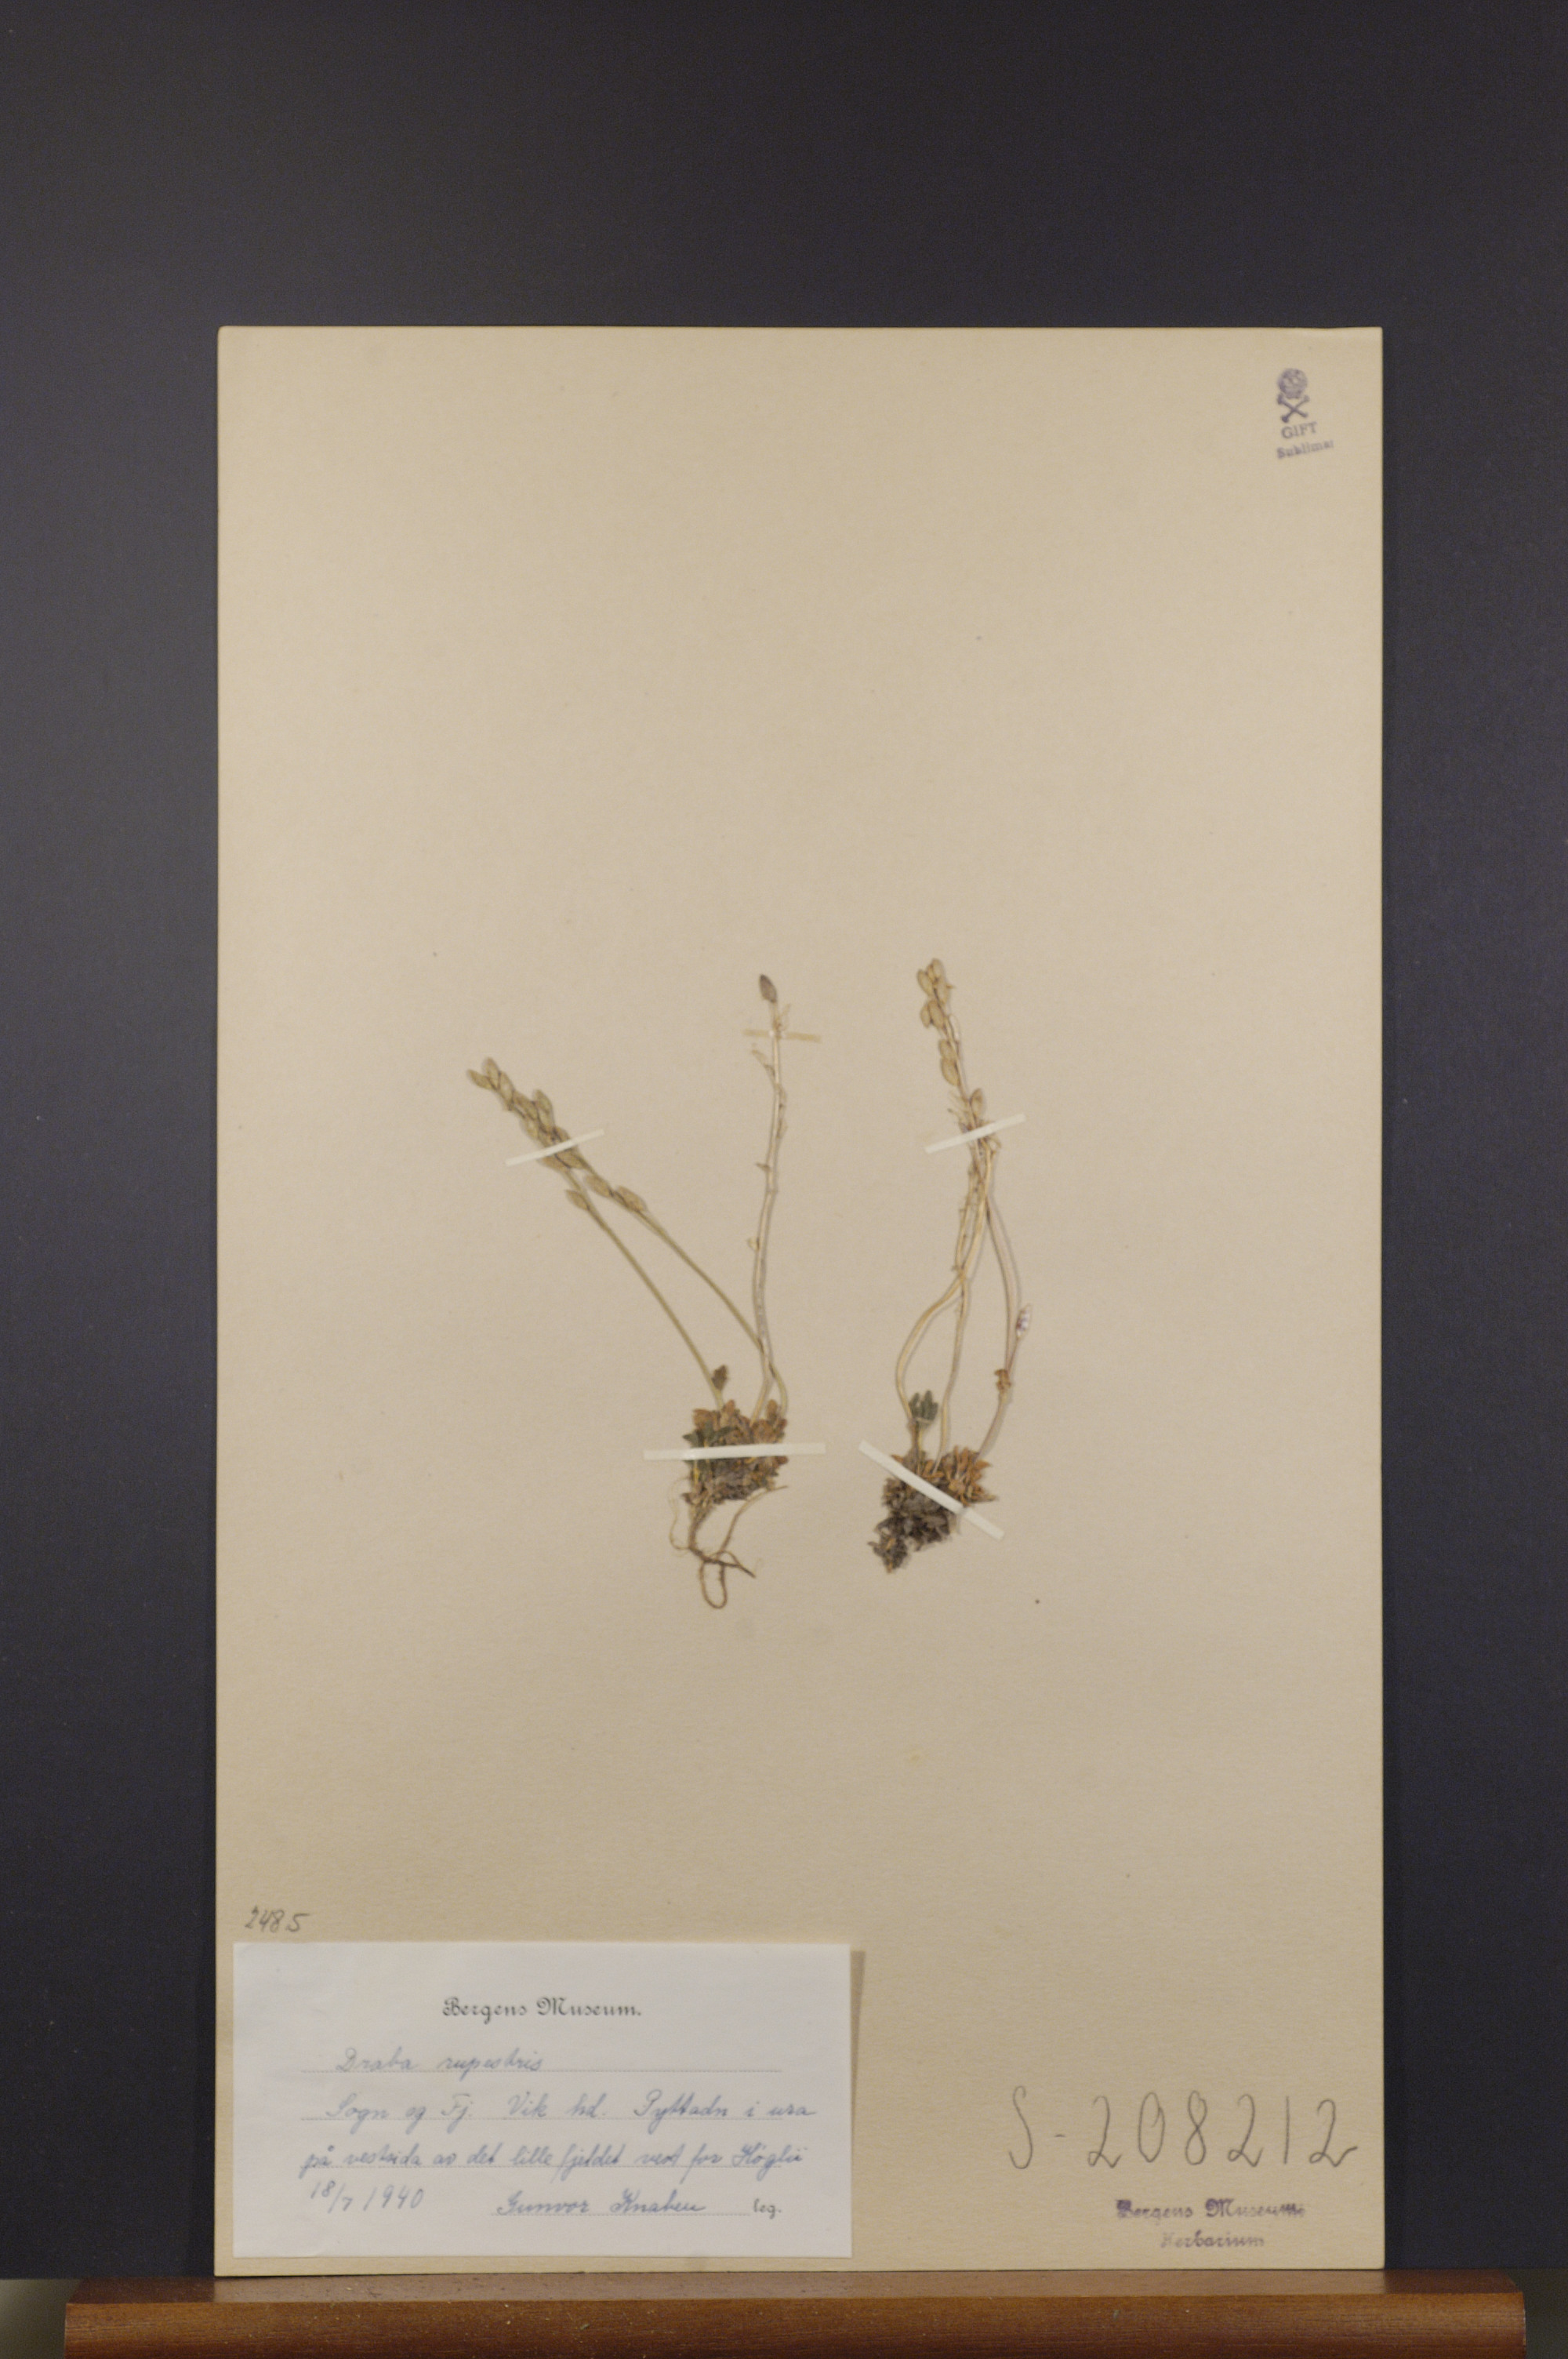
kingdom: Plantae
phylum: Tracheophyta
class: Magnoliopsida
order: Brassicales
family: Brassicaceae
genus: Draba
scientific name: Draba norvegica
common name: Rock whitlowgrass
